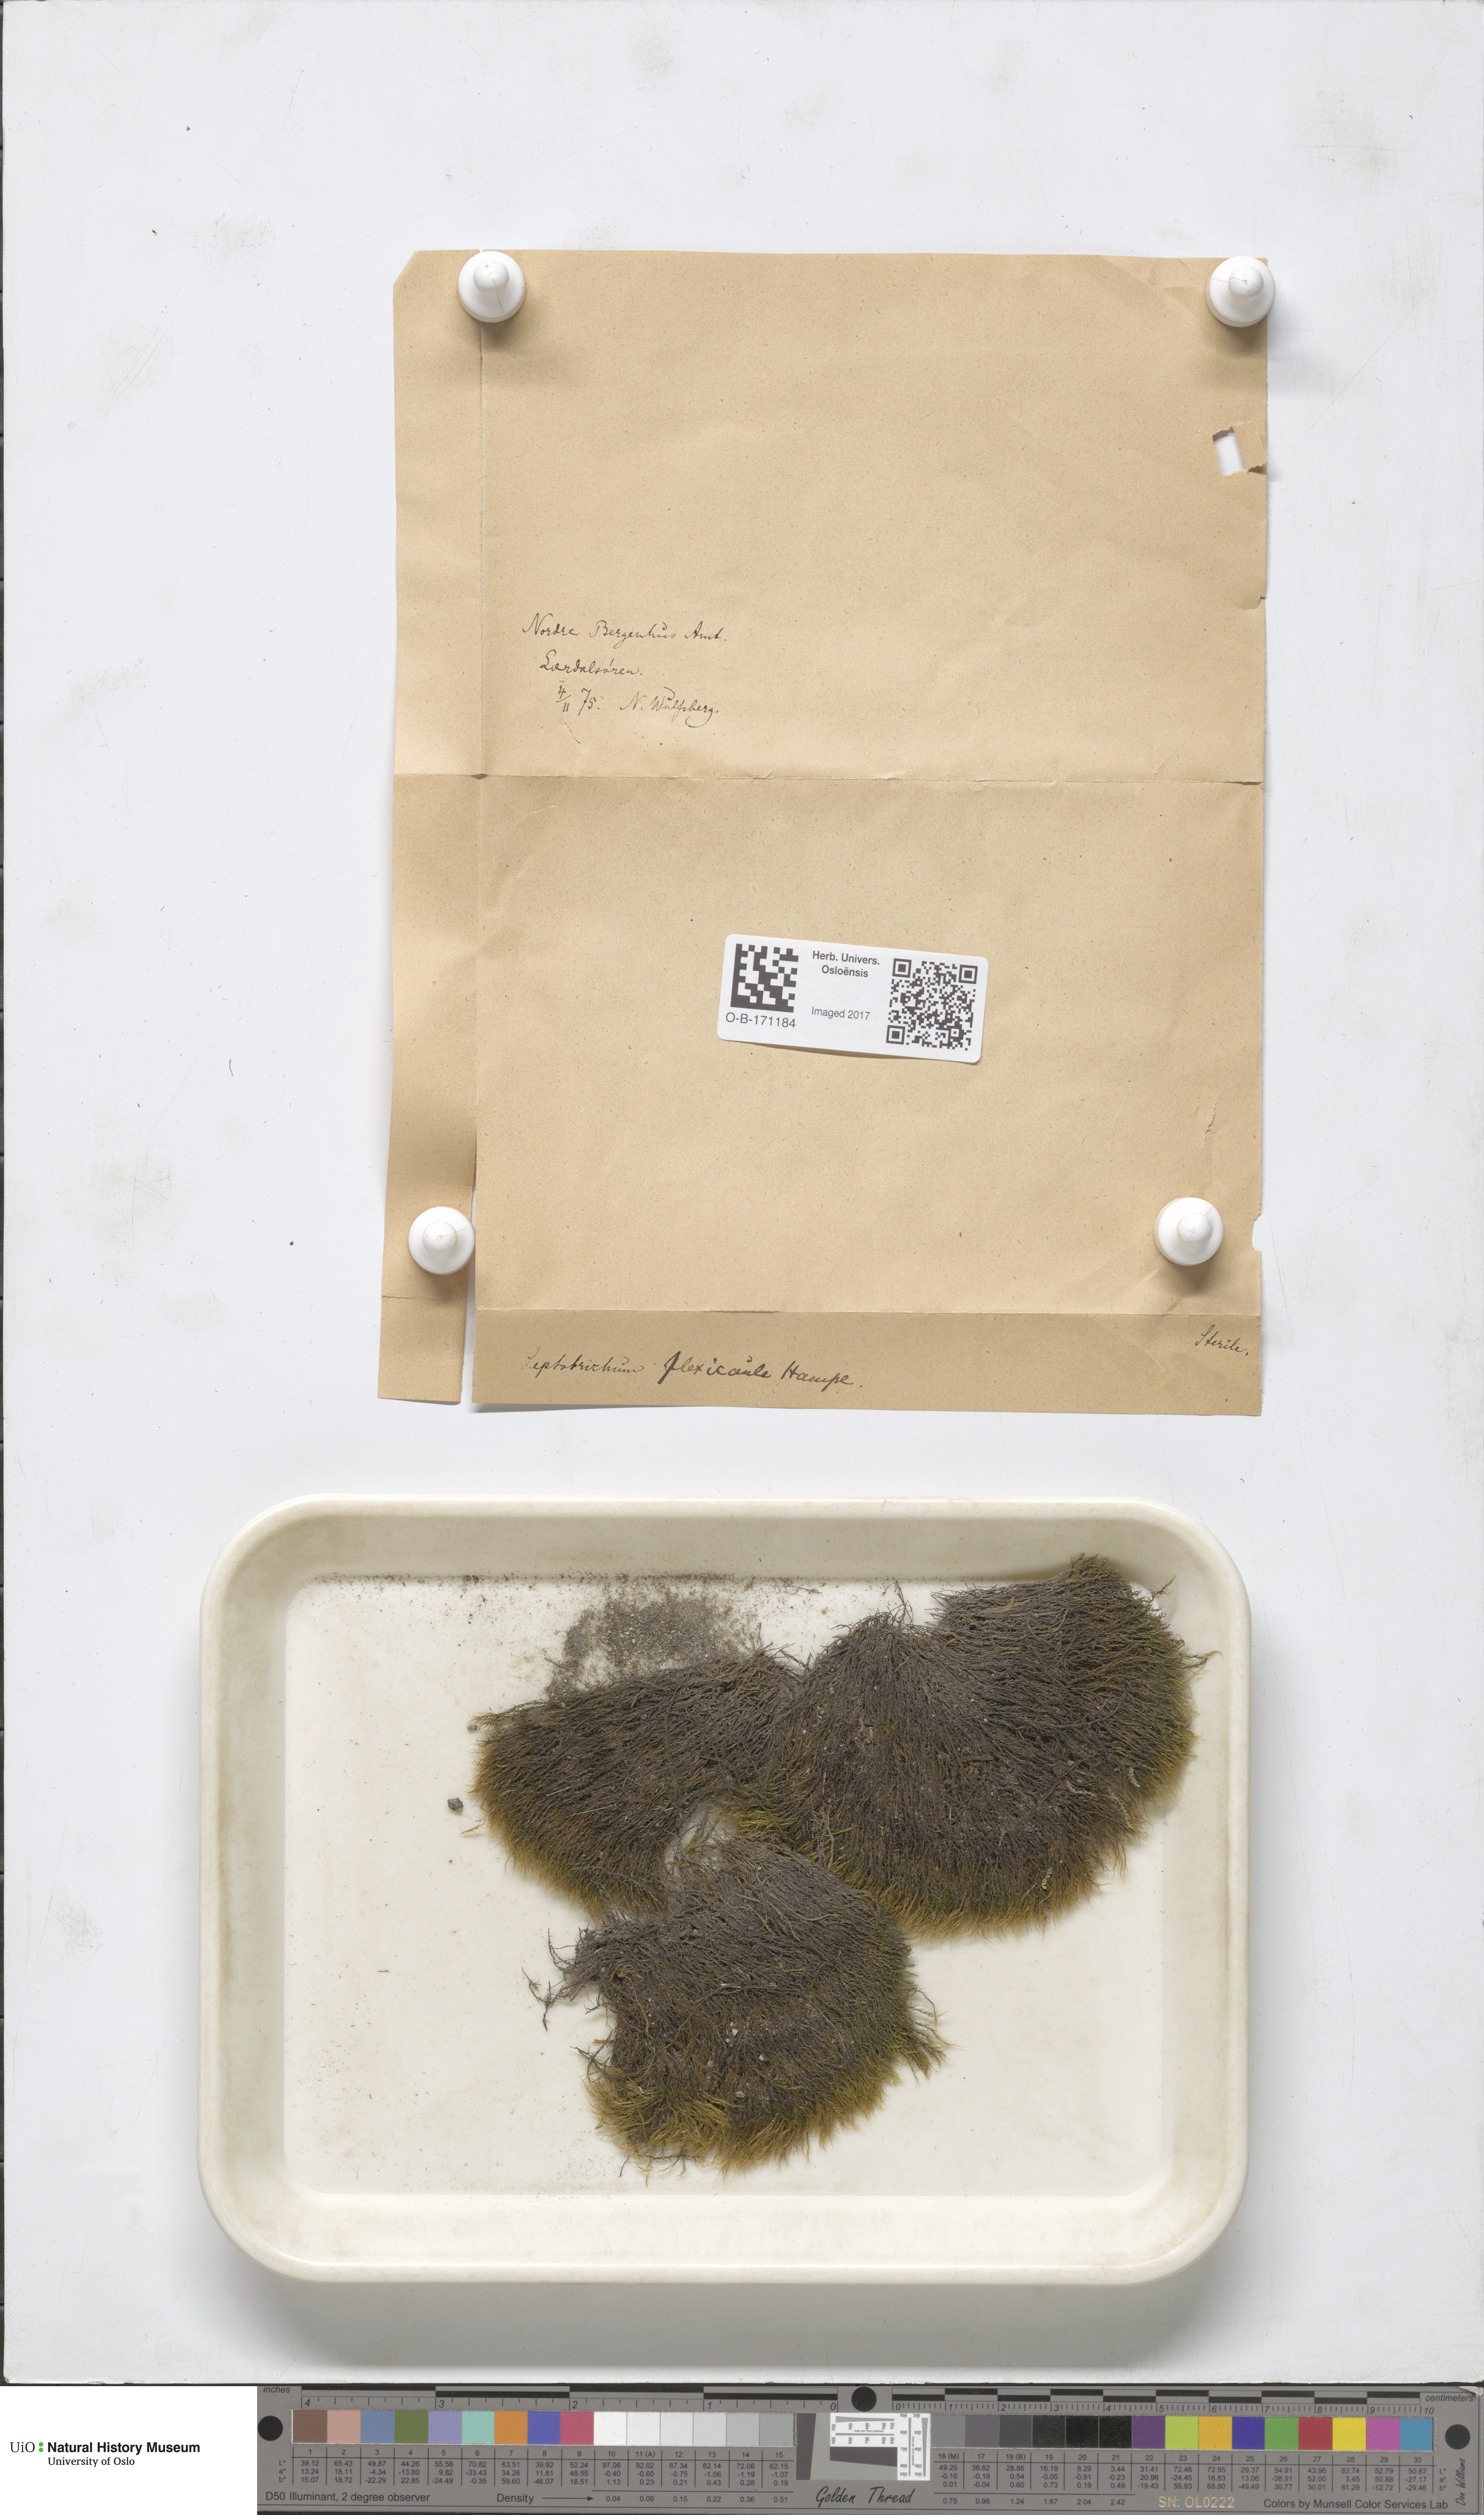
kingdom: Plantae
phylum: Bryophyta
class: Bryopsida
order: Scouleriales
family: Flexitrichaceae
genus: Flexitrichum
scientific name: Flexitrichum flexicaule
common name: Bendy ditrichum
